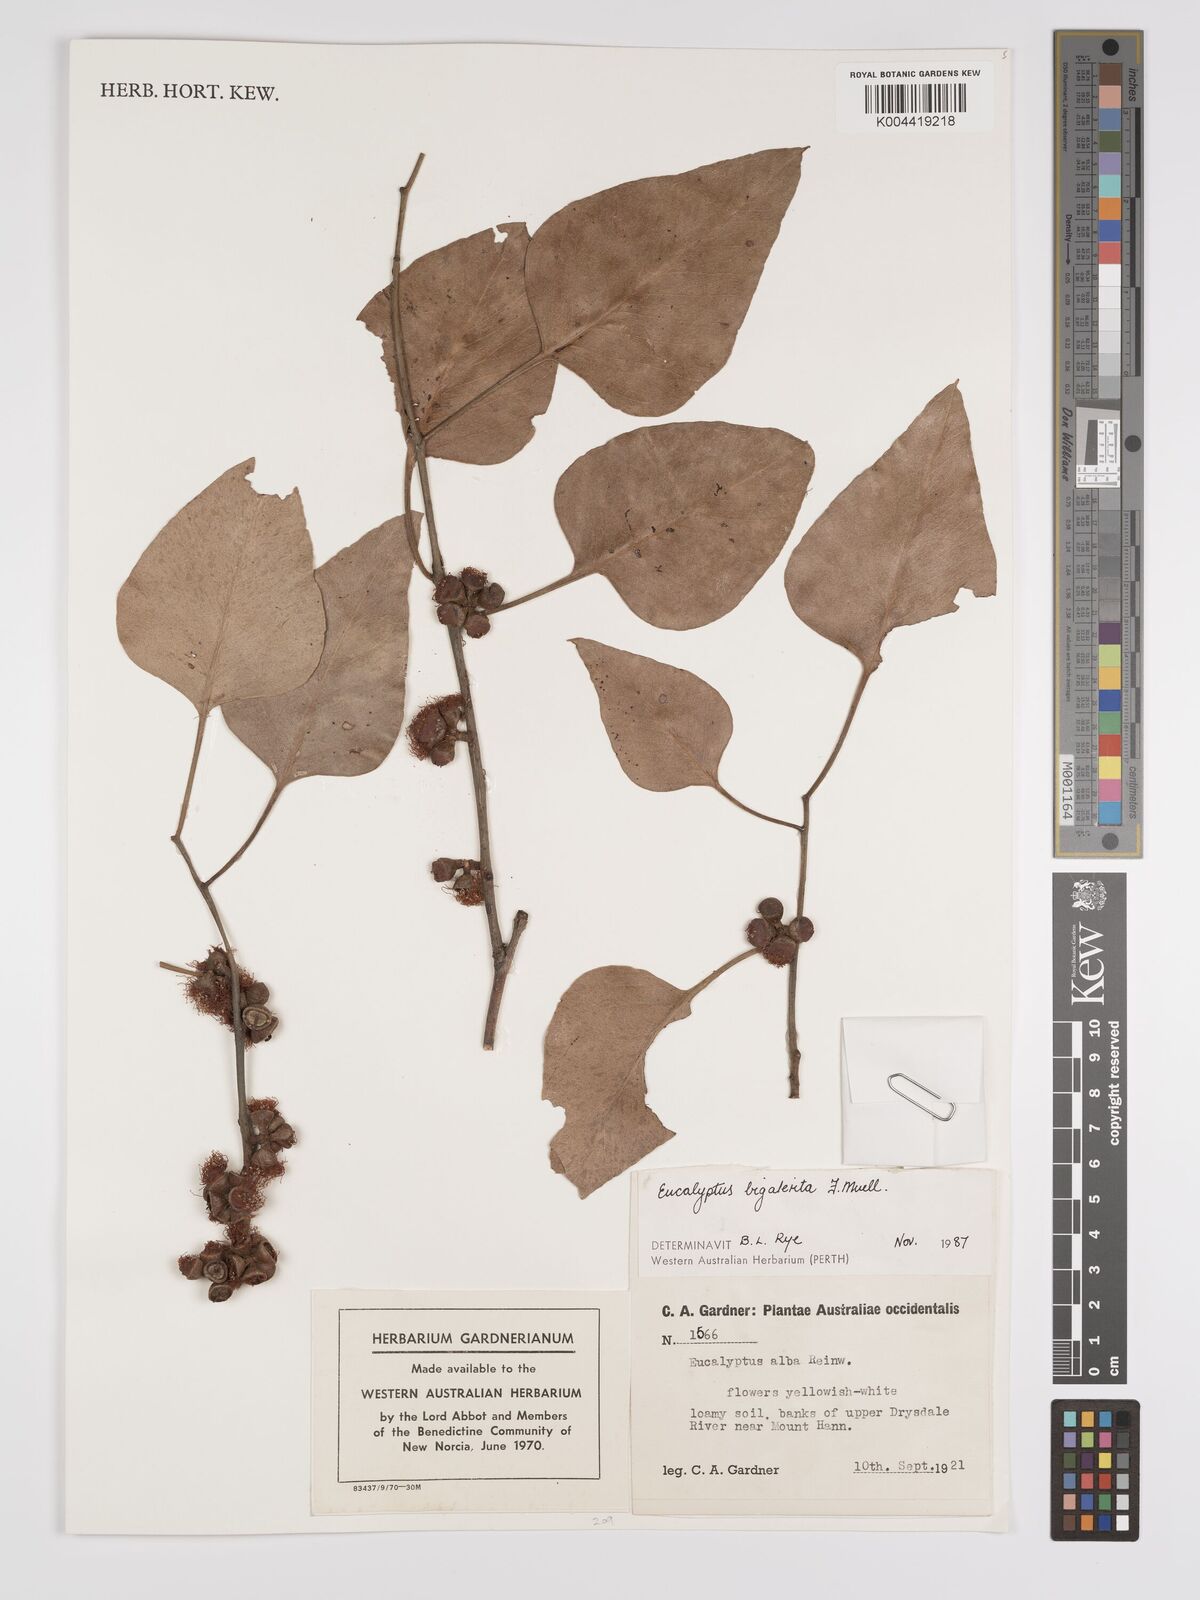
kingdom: Plantae
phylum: Tracheophyta
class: Magnoliopsida
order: Myrtales
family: Myrtaceae
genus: Eucalyptus
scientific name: Eucalyptus bigalerita
